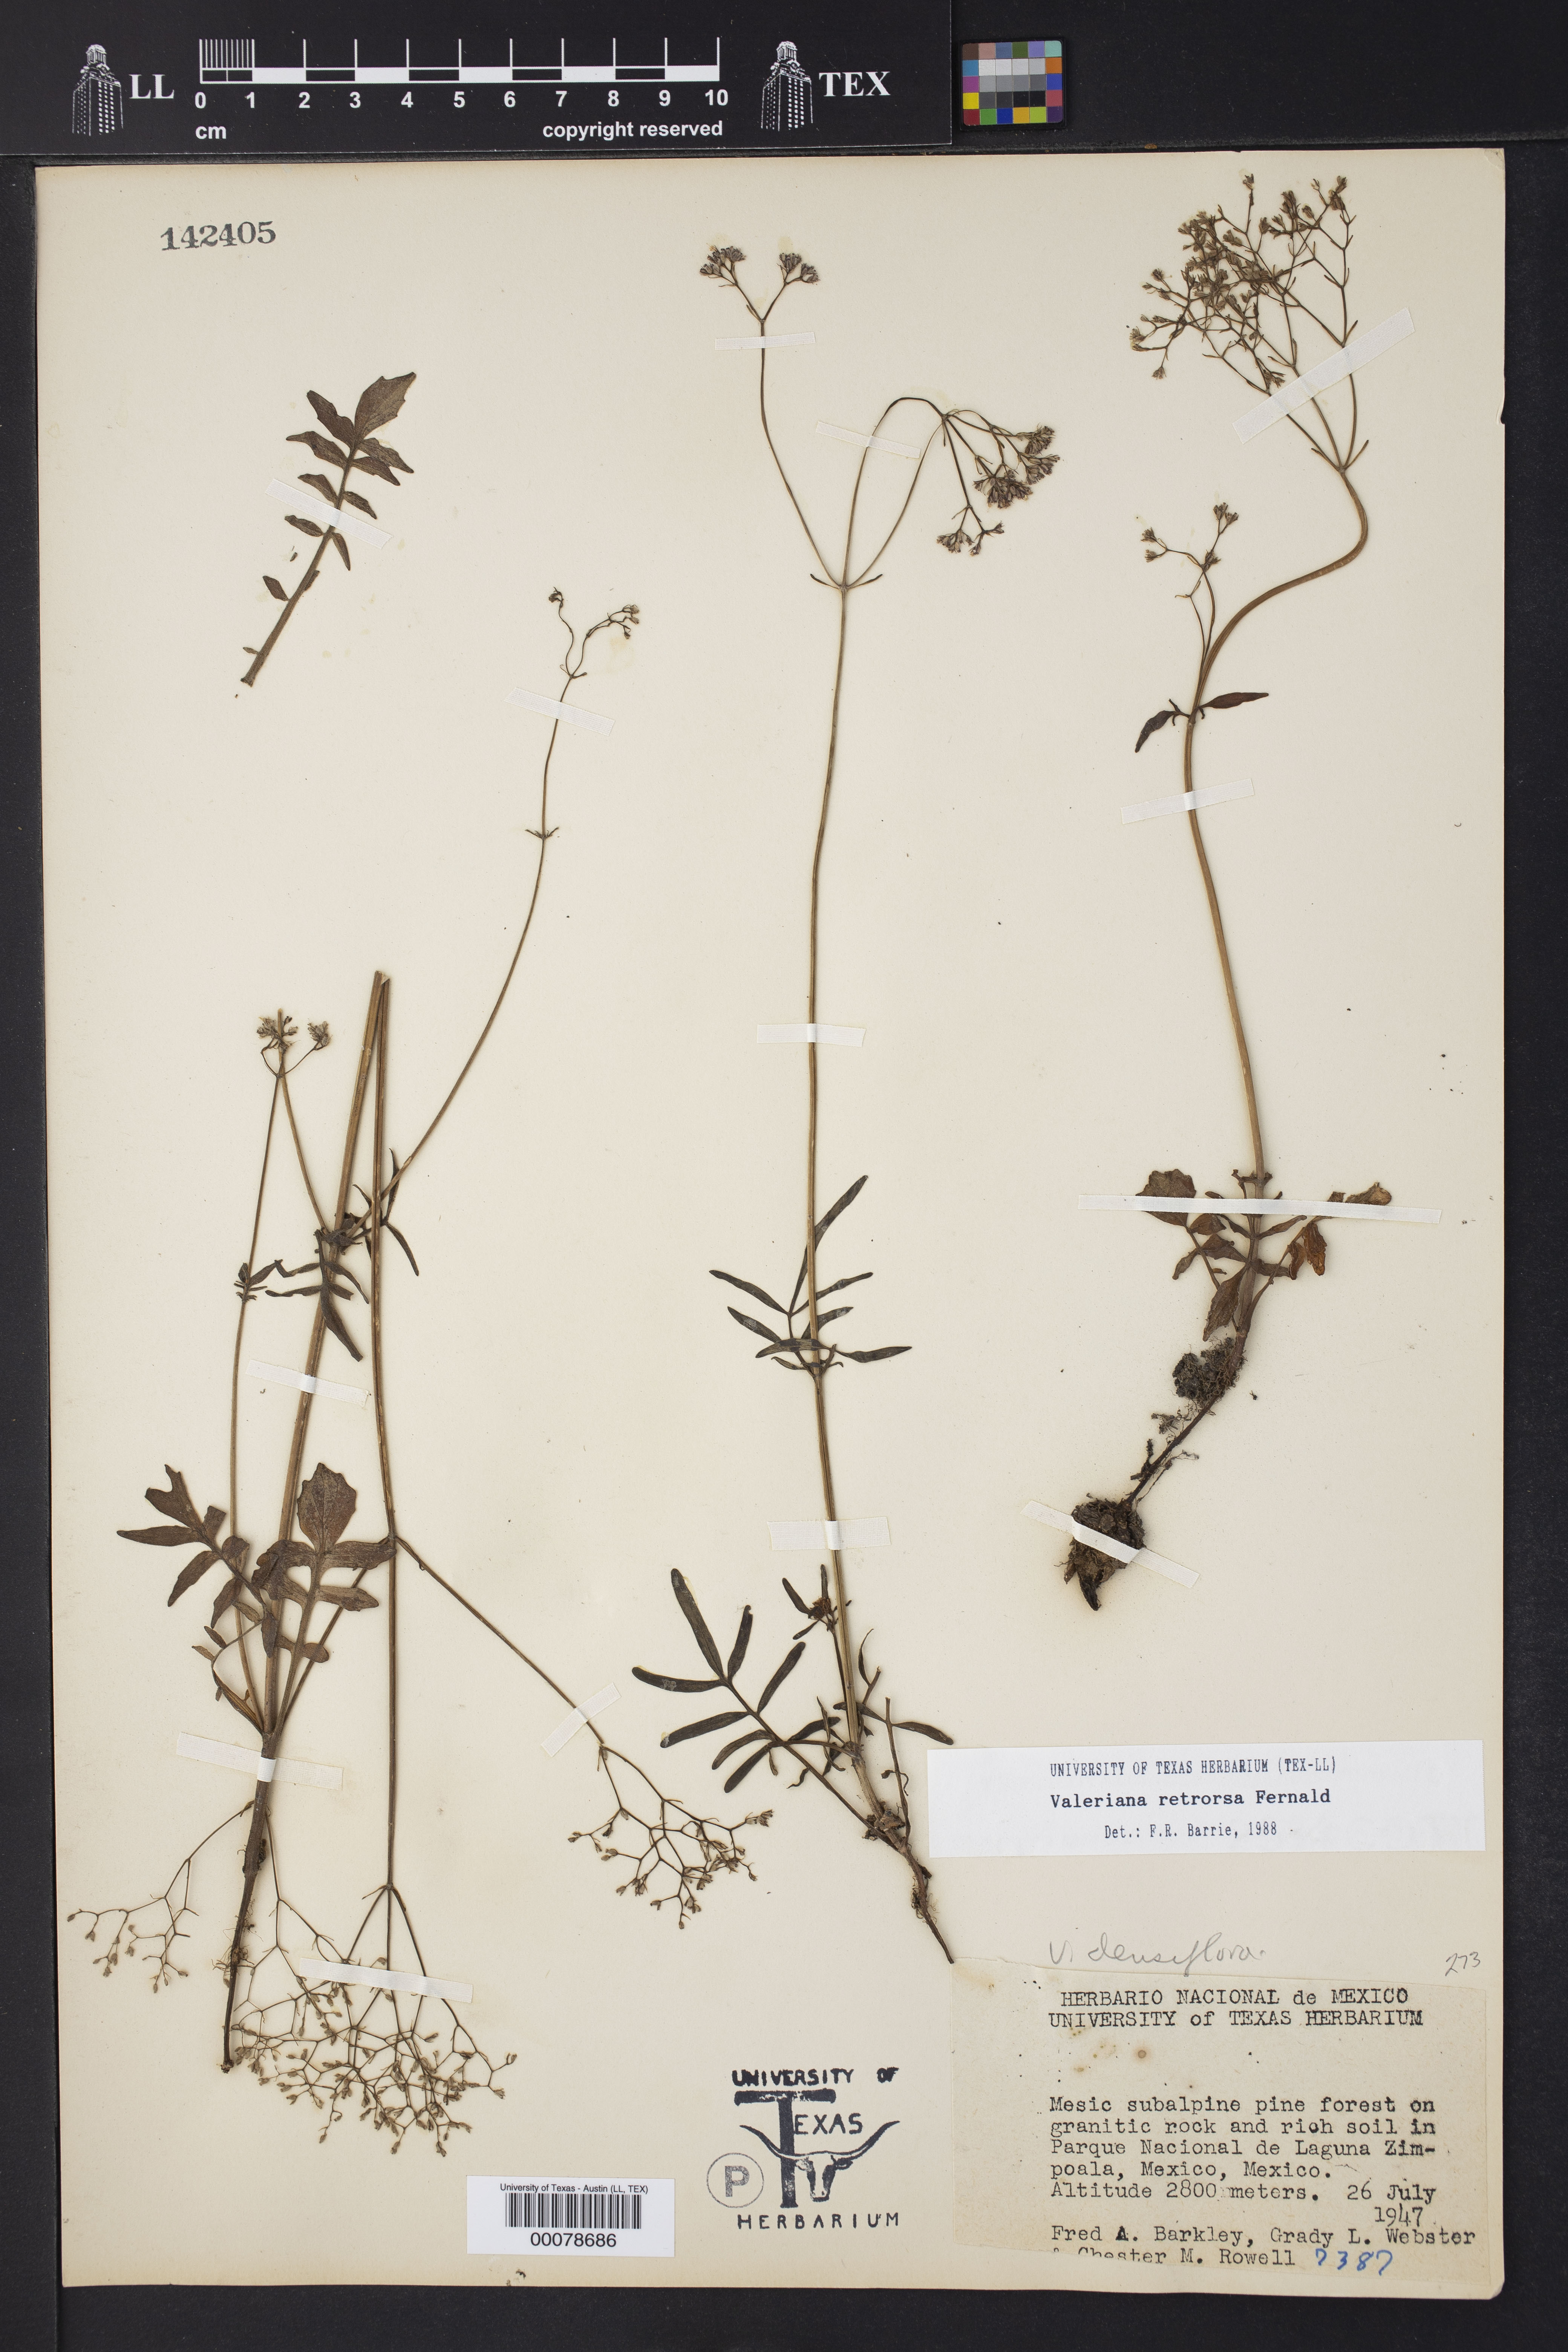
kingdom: Plantae
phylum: Tracheophyta
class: Magnoliopsida
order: Dipsacales
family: Caprifoliaceae
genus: Valeriana
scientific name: Valeriana densiflora
